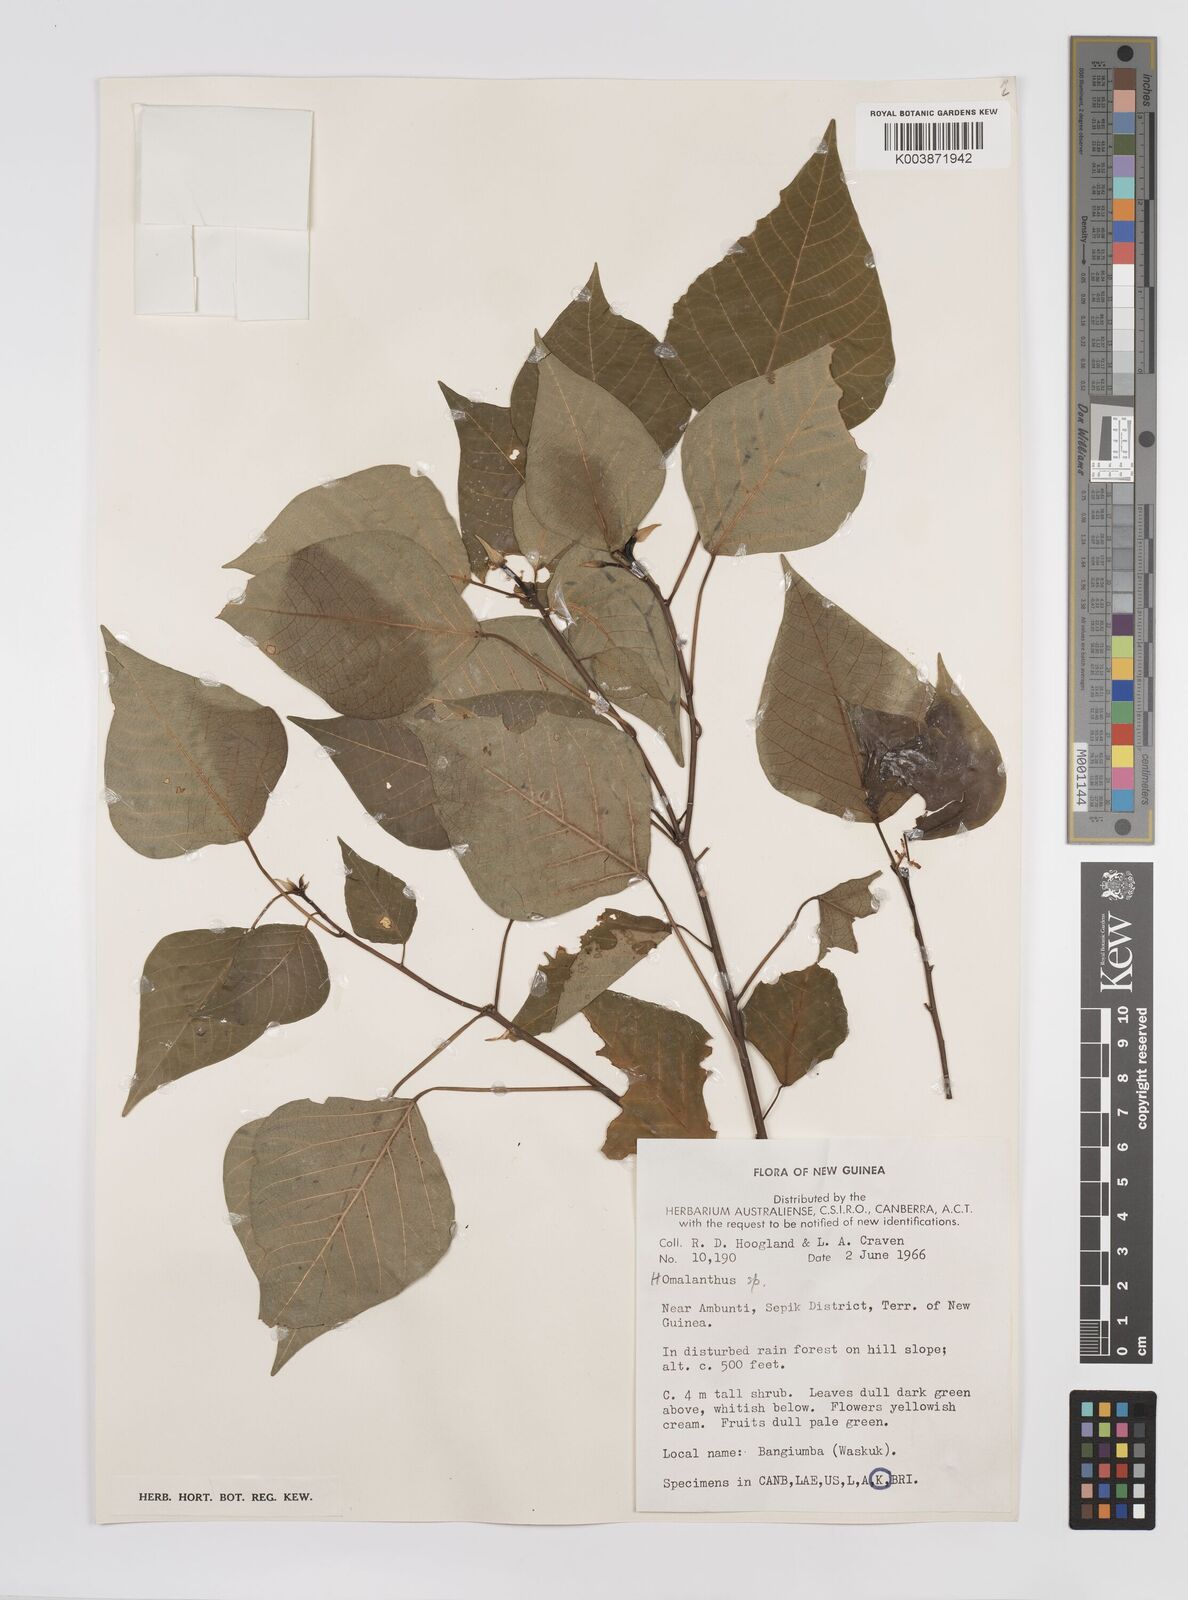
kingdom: Plantae
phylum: Tracheophyta
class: Magnoliopsida
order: Malpighiales
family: Euphorbiaceae
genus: Homalanthus
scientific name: Homalanthus novoguineensis
